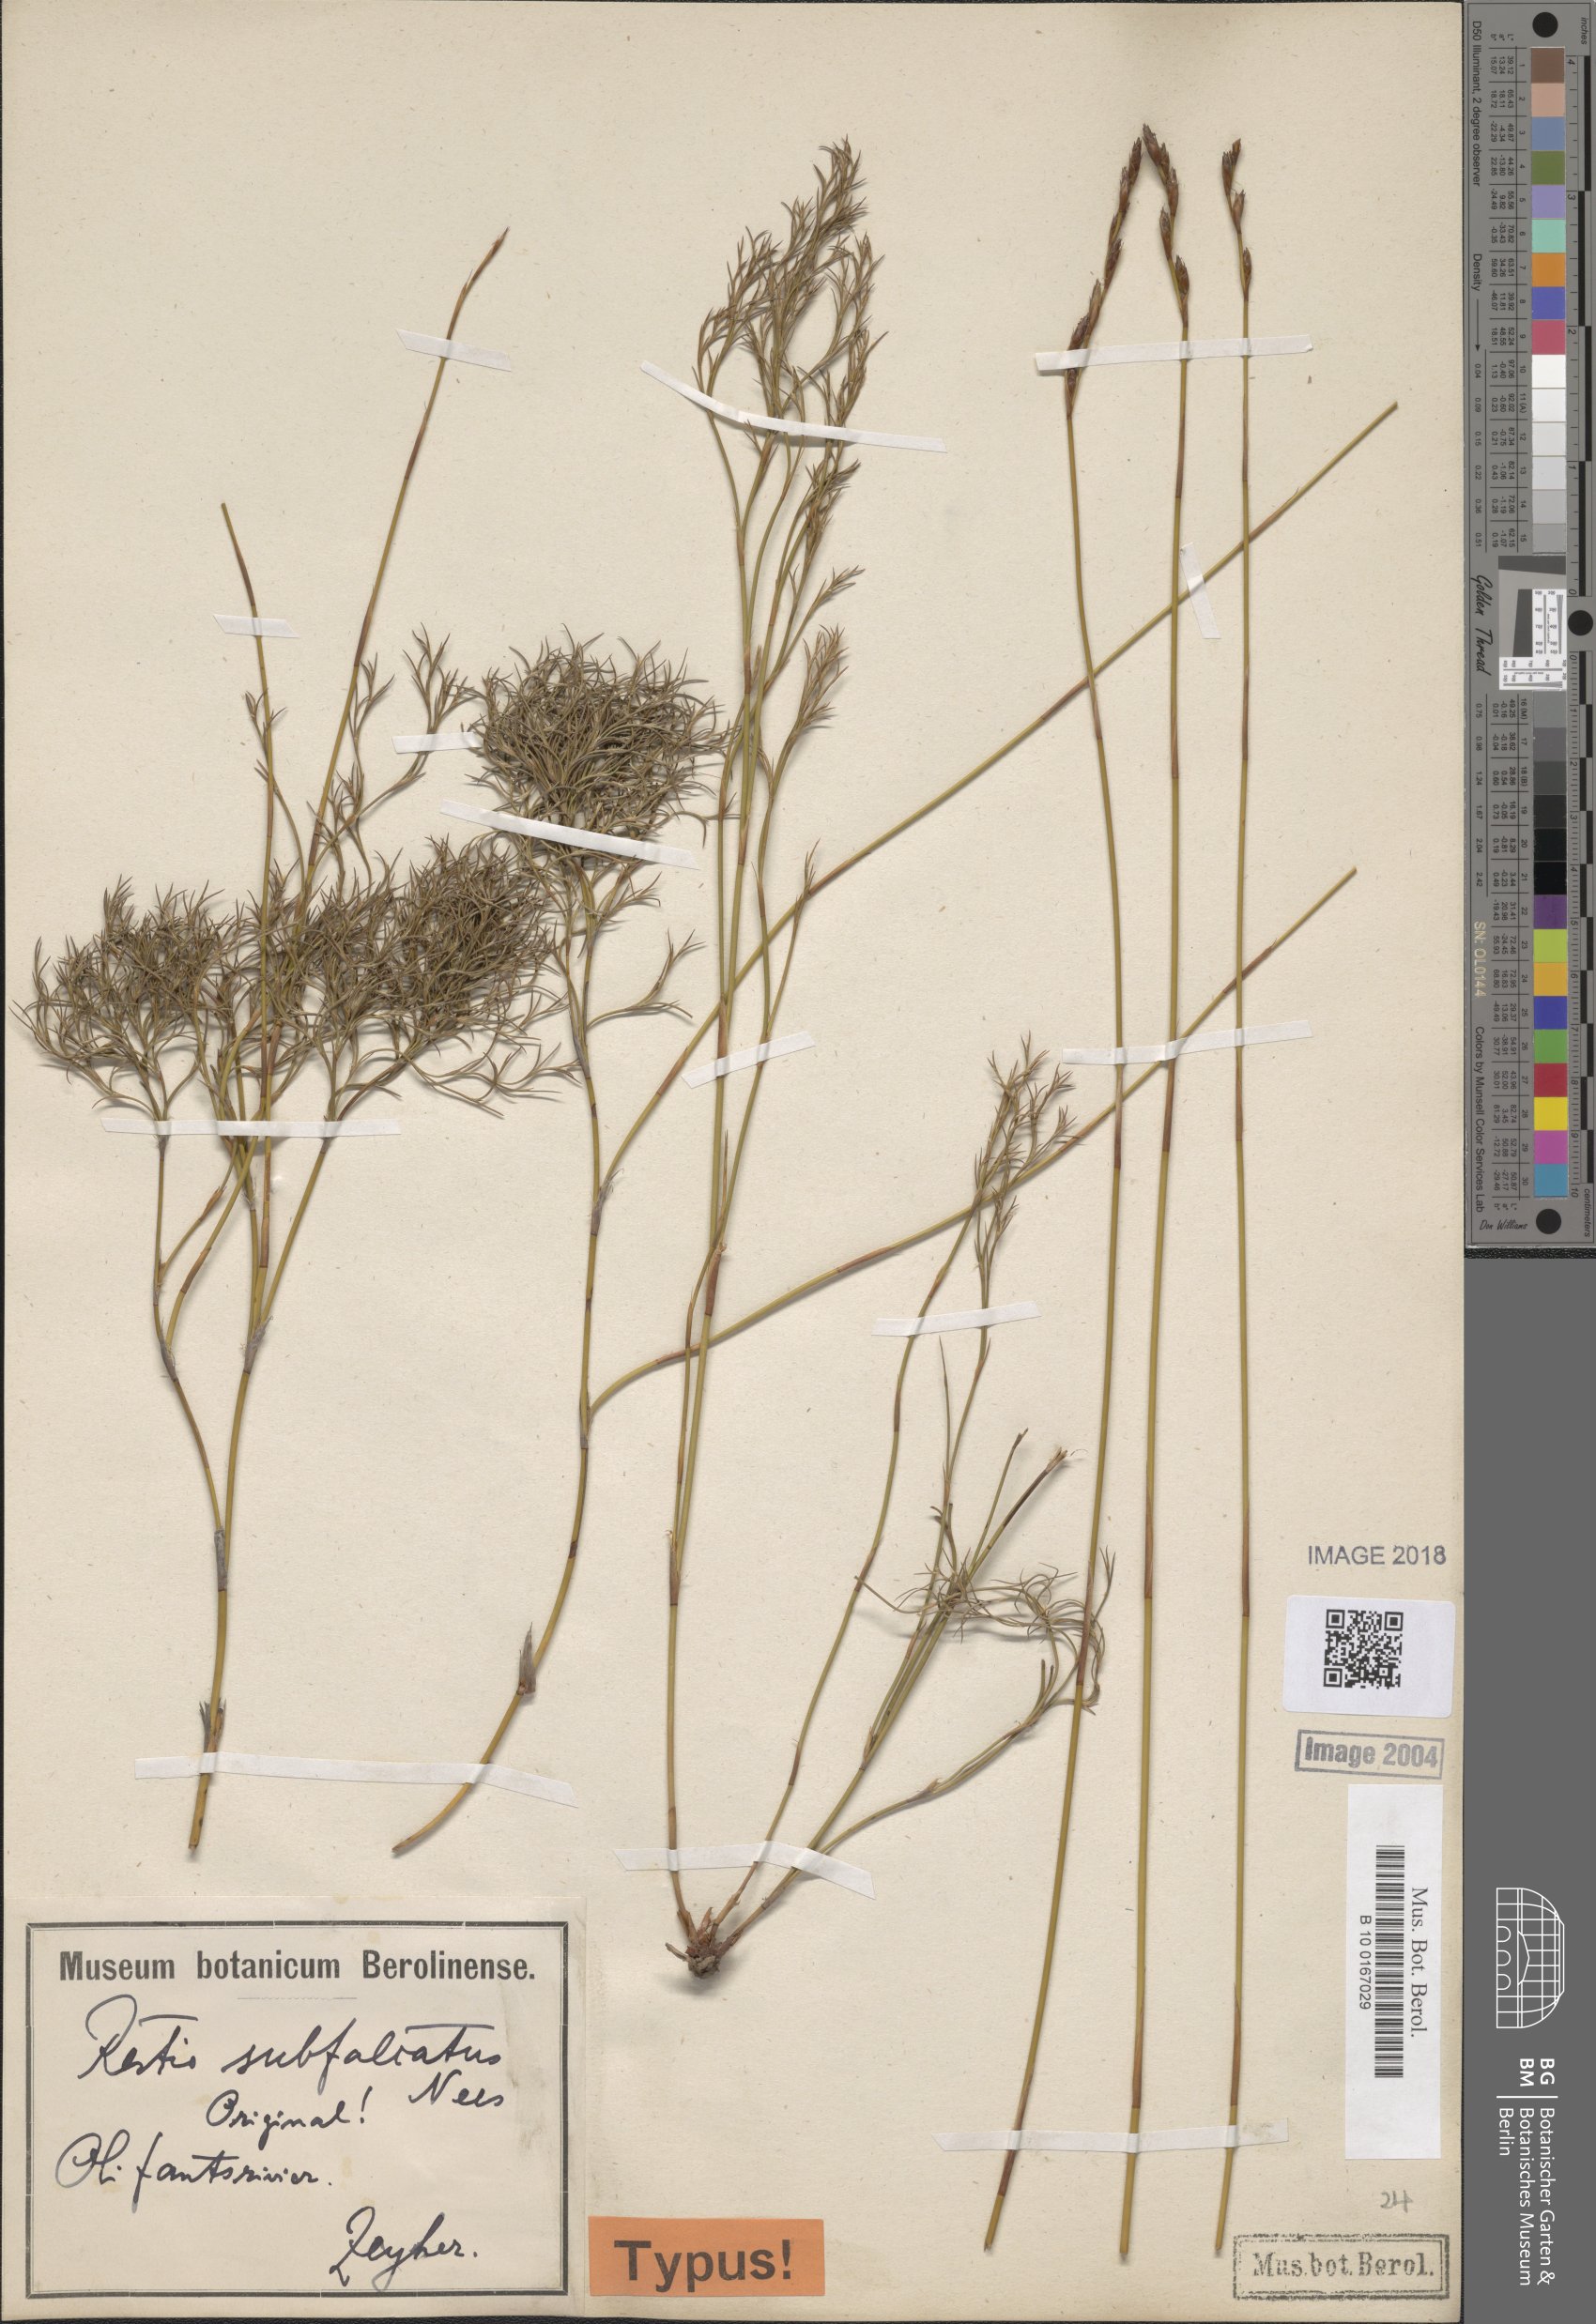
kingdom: Plantae
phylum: Tracheophyta
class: Liliopsida
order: Poales
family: Restionaceae
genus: Restio
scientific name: Restio sieberi
